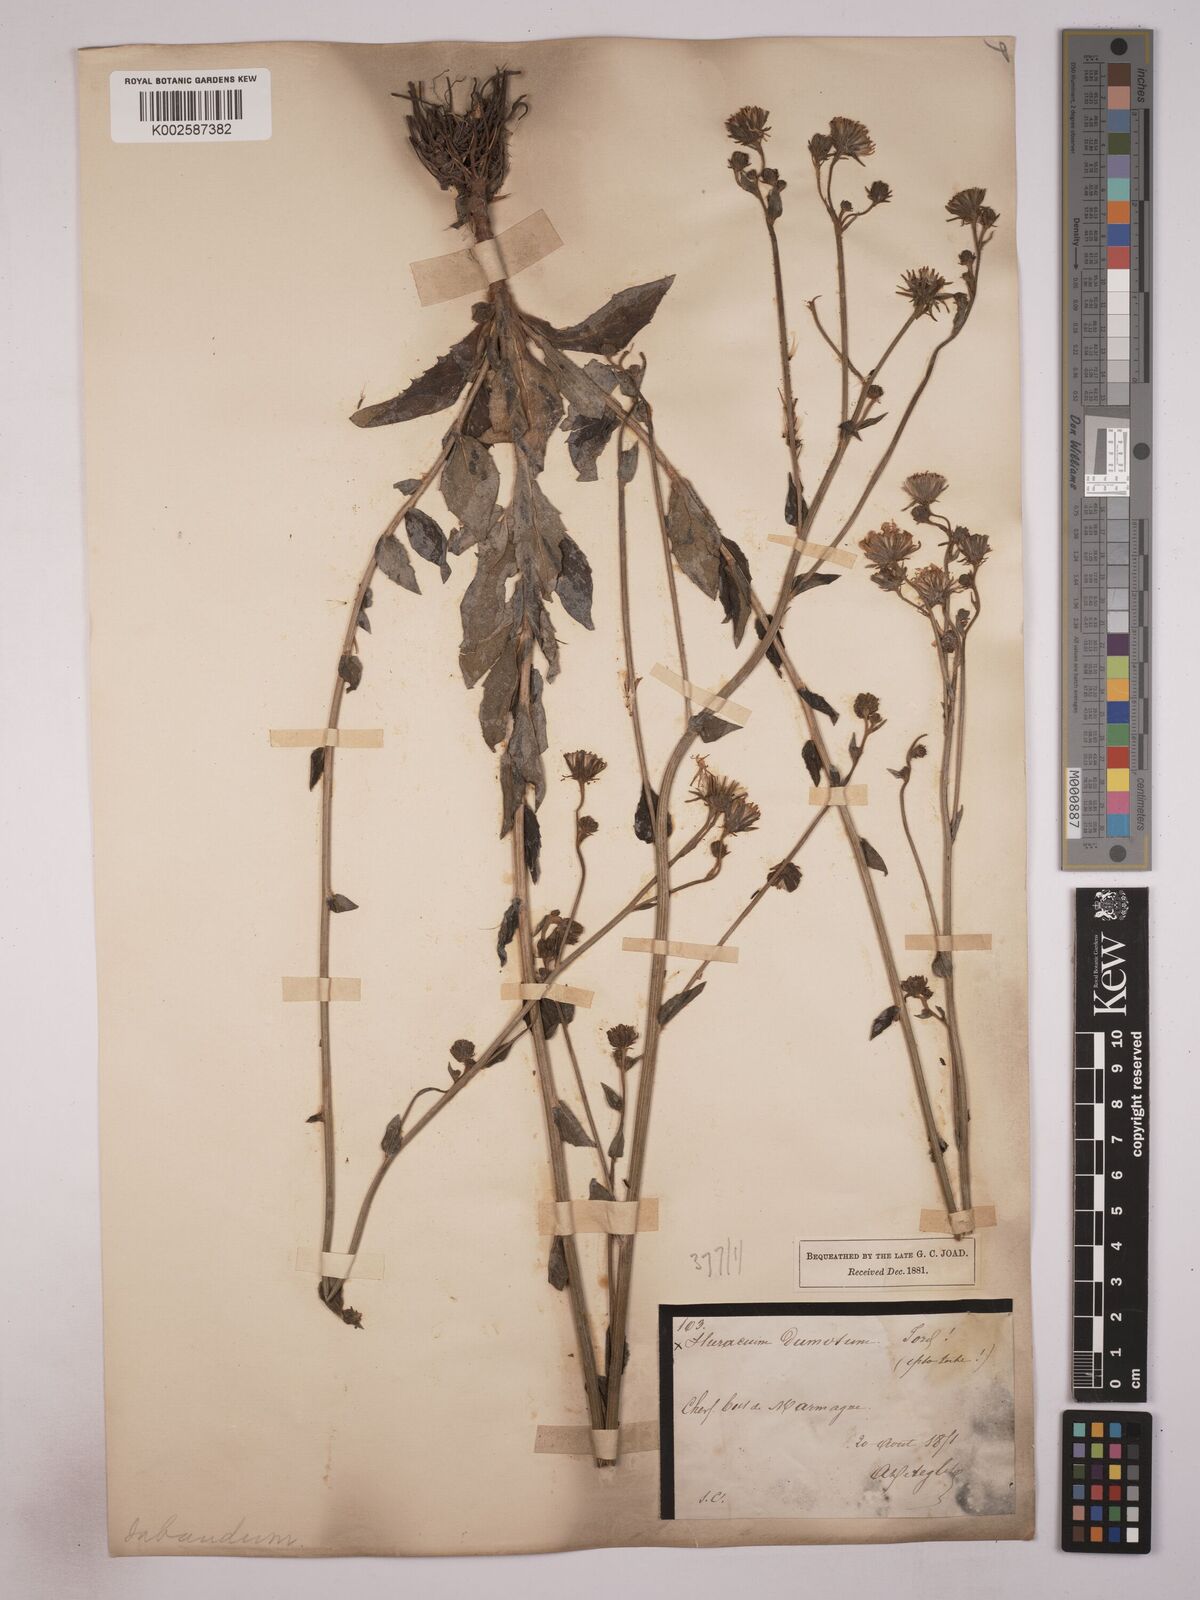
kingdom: Plantae
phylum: Tracheophyta
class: Magnoliopsida
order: Asterales
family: Asteraceae
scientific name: Asteraceae
